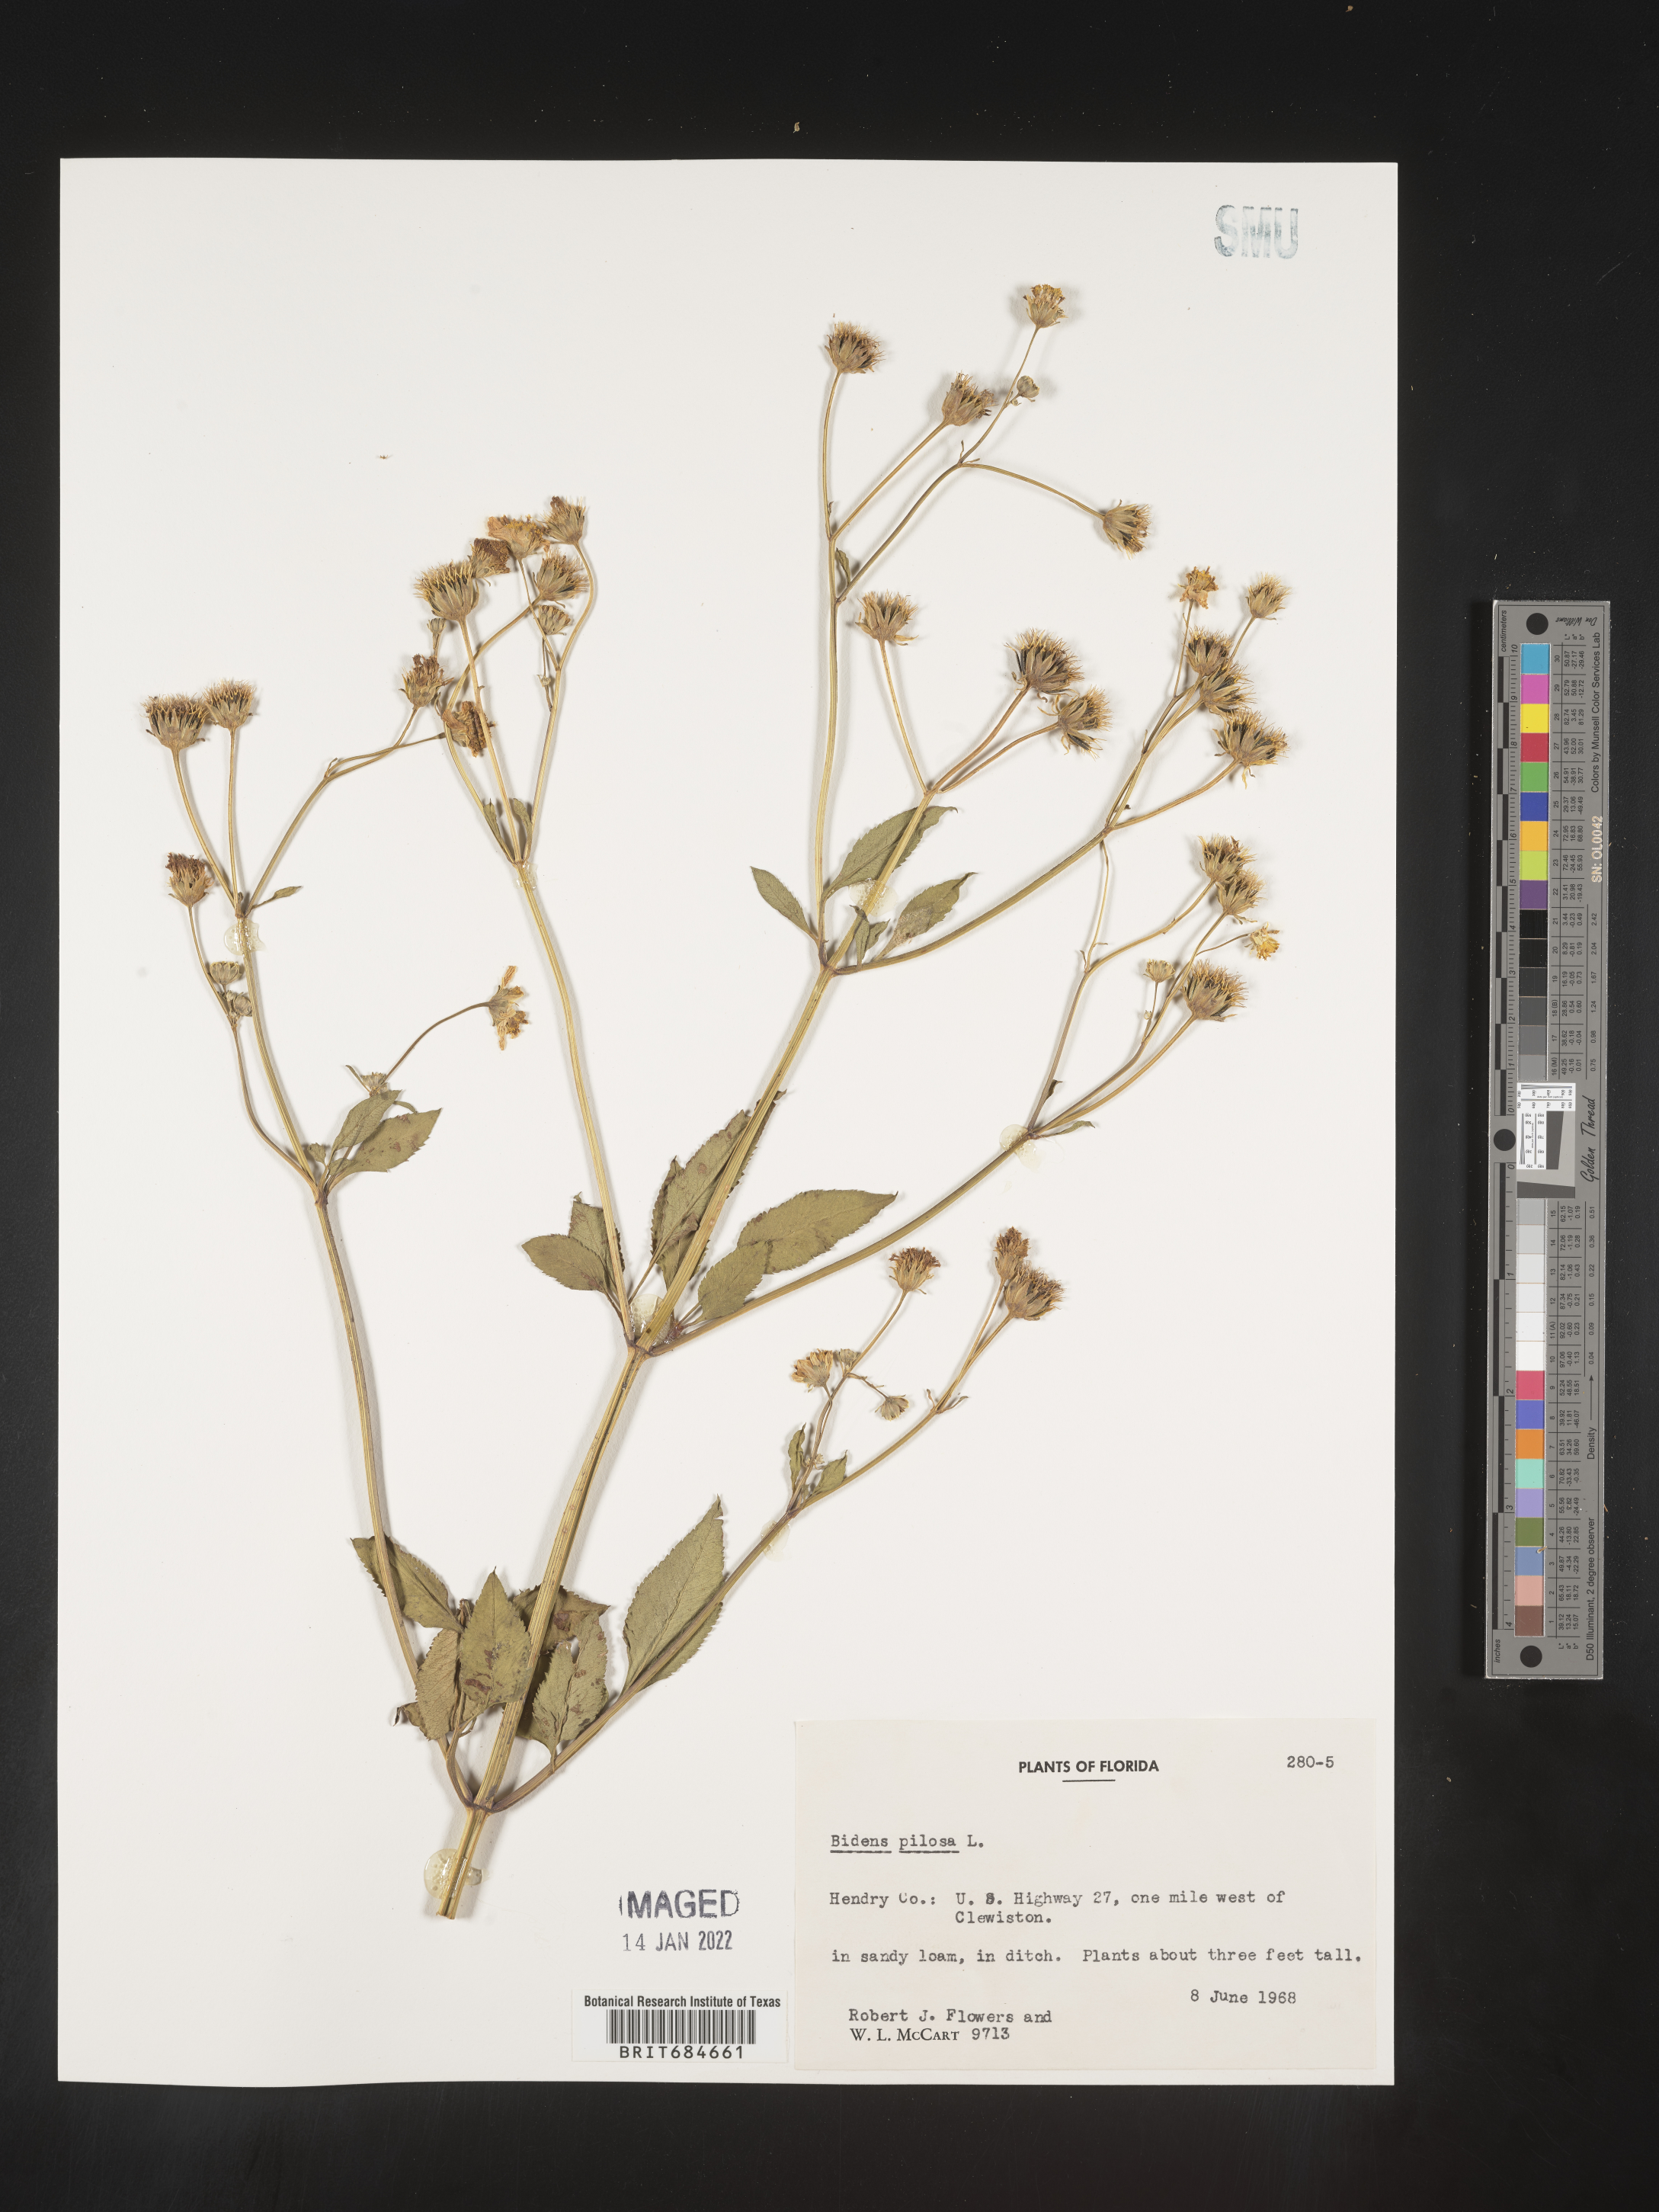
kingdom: Plantae
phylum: Tracheophyta
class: Magnoliopsida
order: Asterales
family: Asteraceae
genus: Bidens
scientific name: Bidens pilosa
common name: Black-jack
